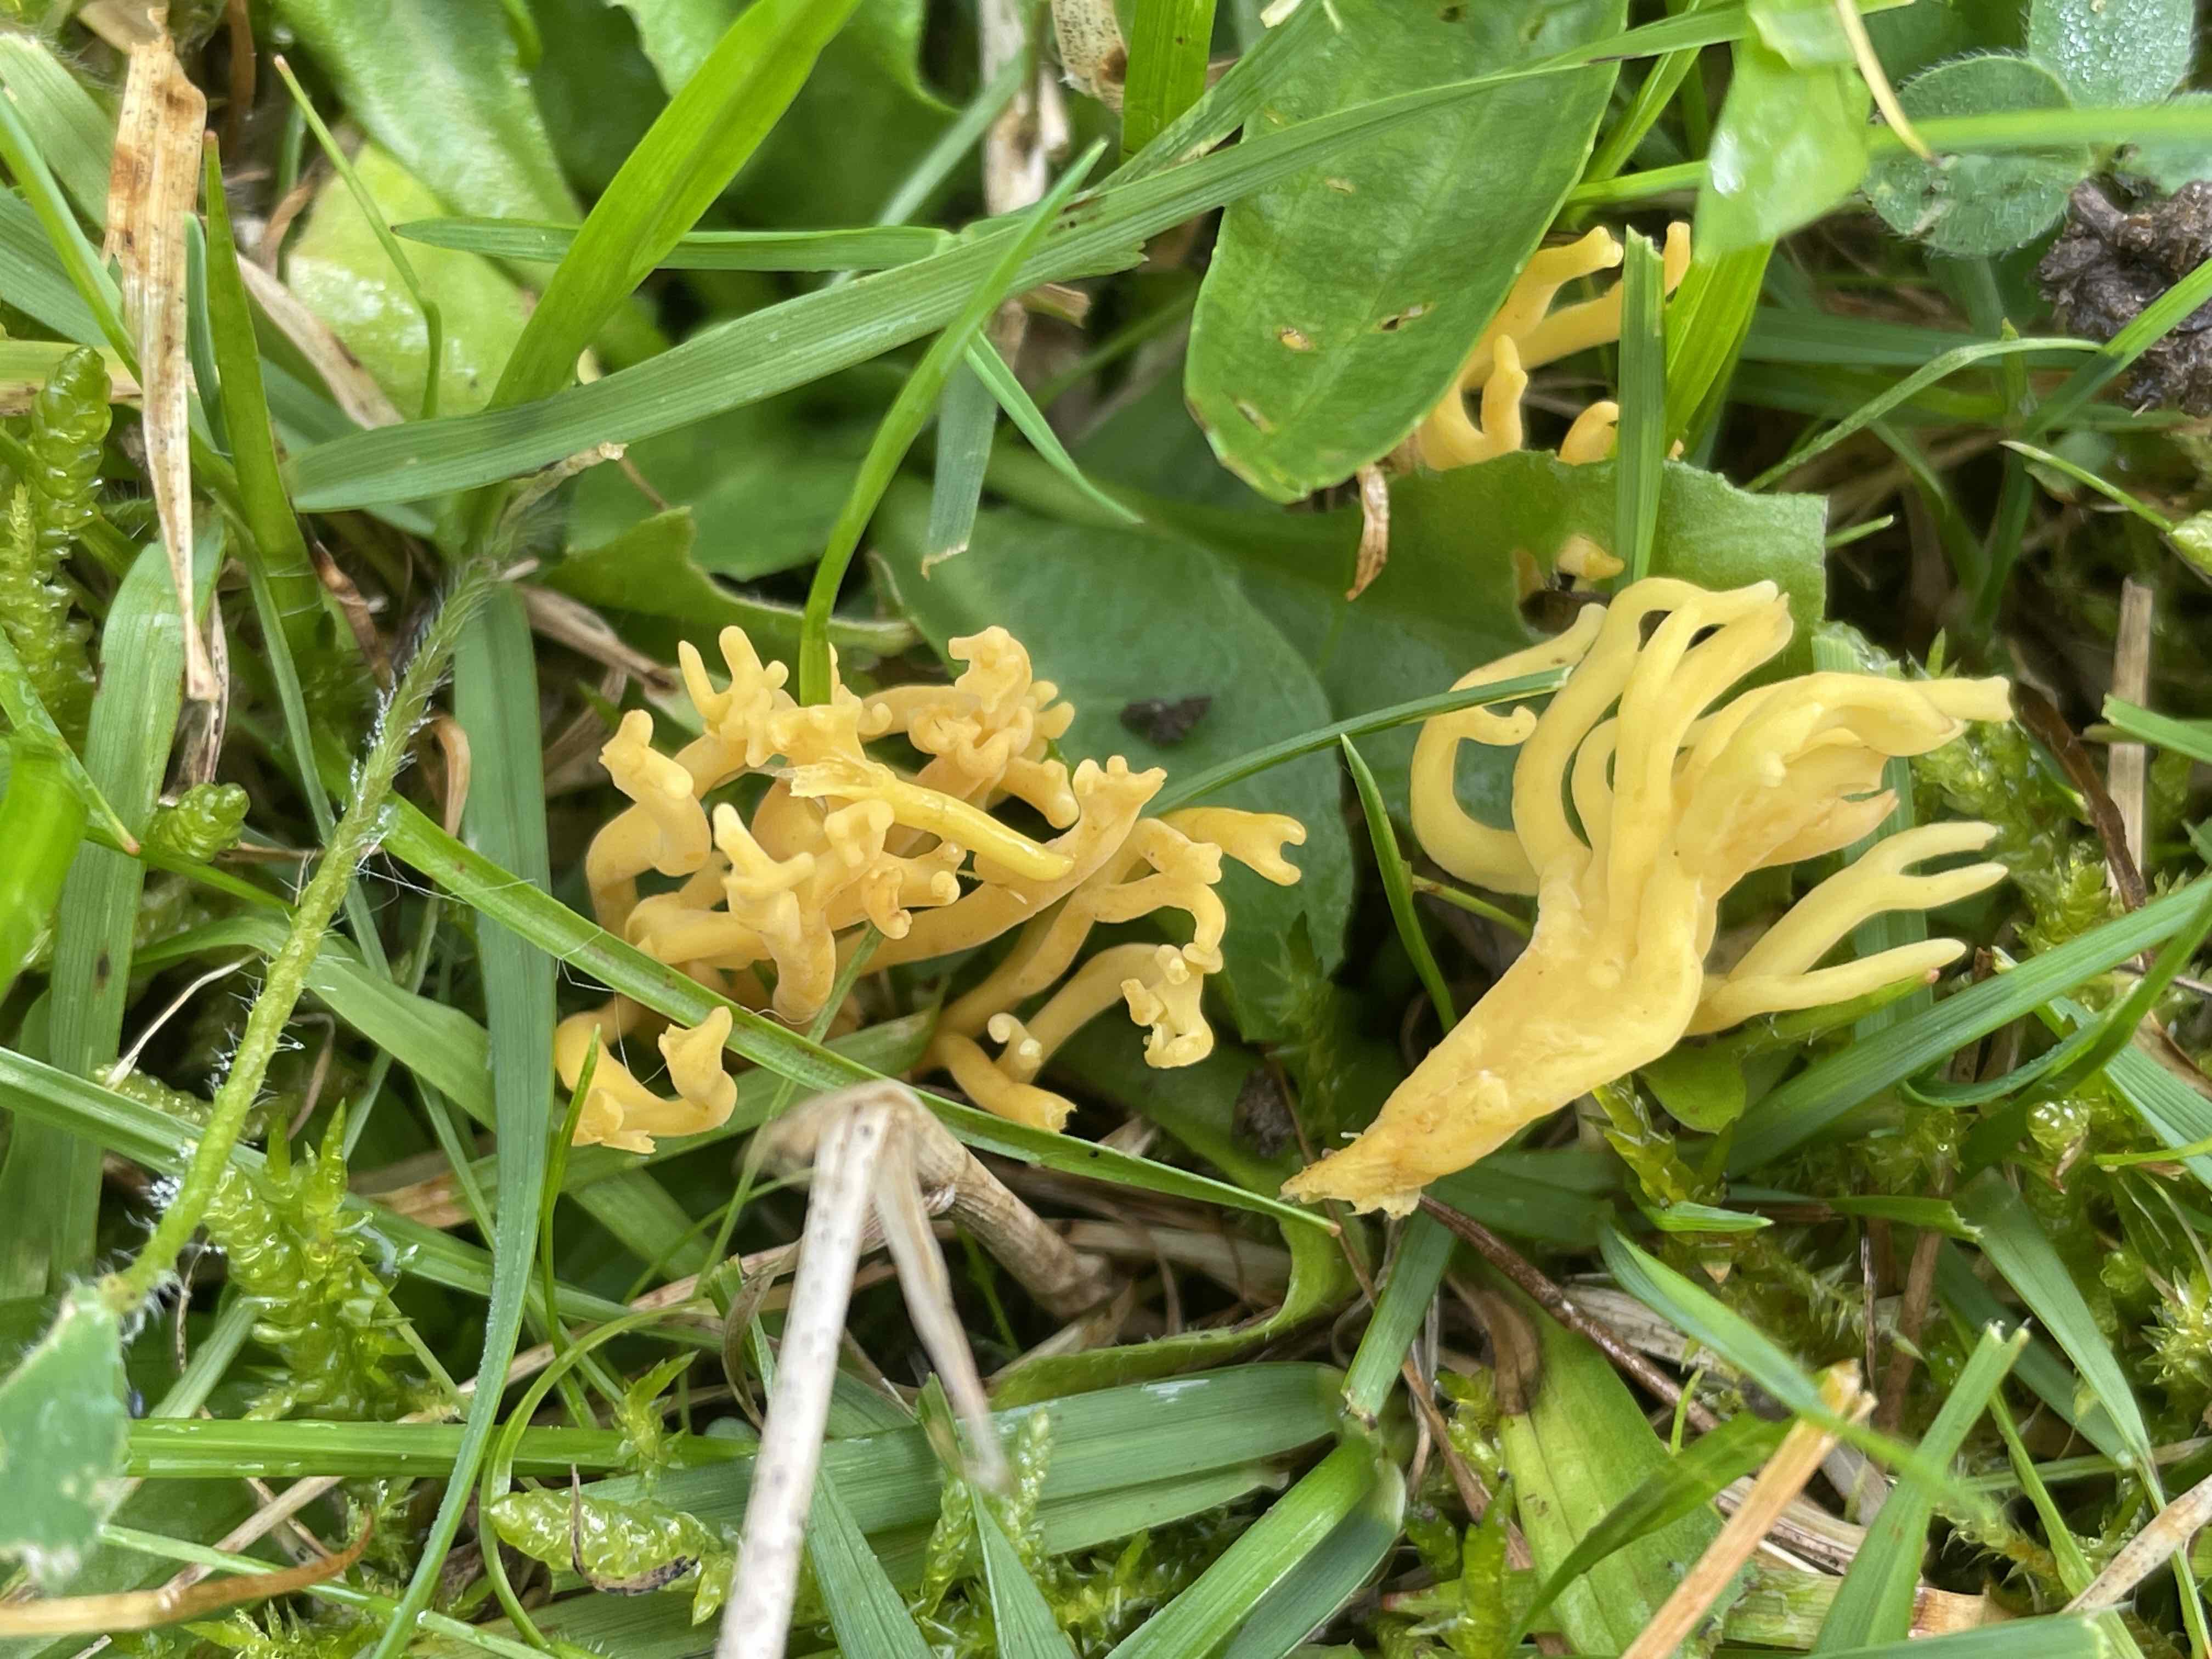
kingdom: Fungi
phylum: Basidiomycota
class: Agaricomycetes
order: Agaricales
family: Clavariaceae
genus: Clavulinopsis
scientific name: Clavulinopsis corniculata
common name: eng-køllesvamp
